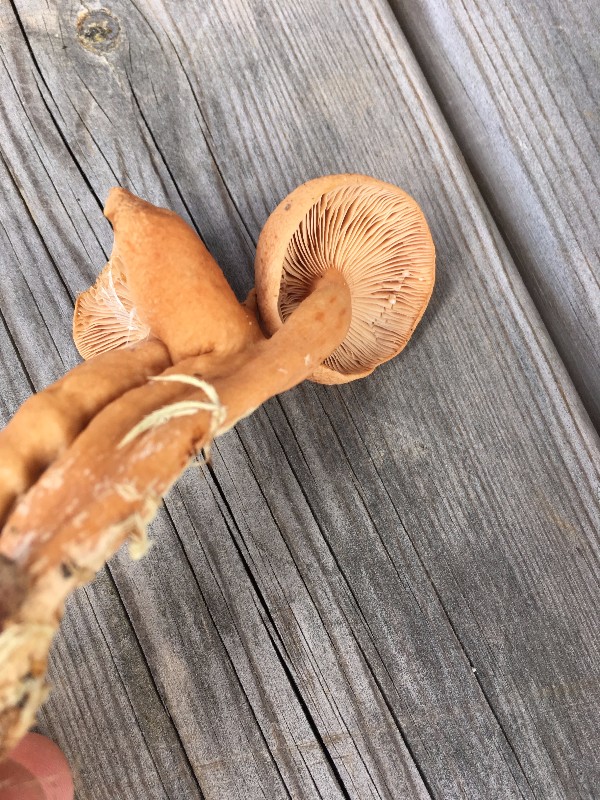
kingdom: Fungi
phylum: Basidiomycota
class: Agaricomycetes
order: Russulales
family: Russulaceae
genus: Lactarius
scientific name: Lactarius tabidus
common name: rynket mælkehat
